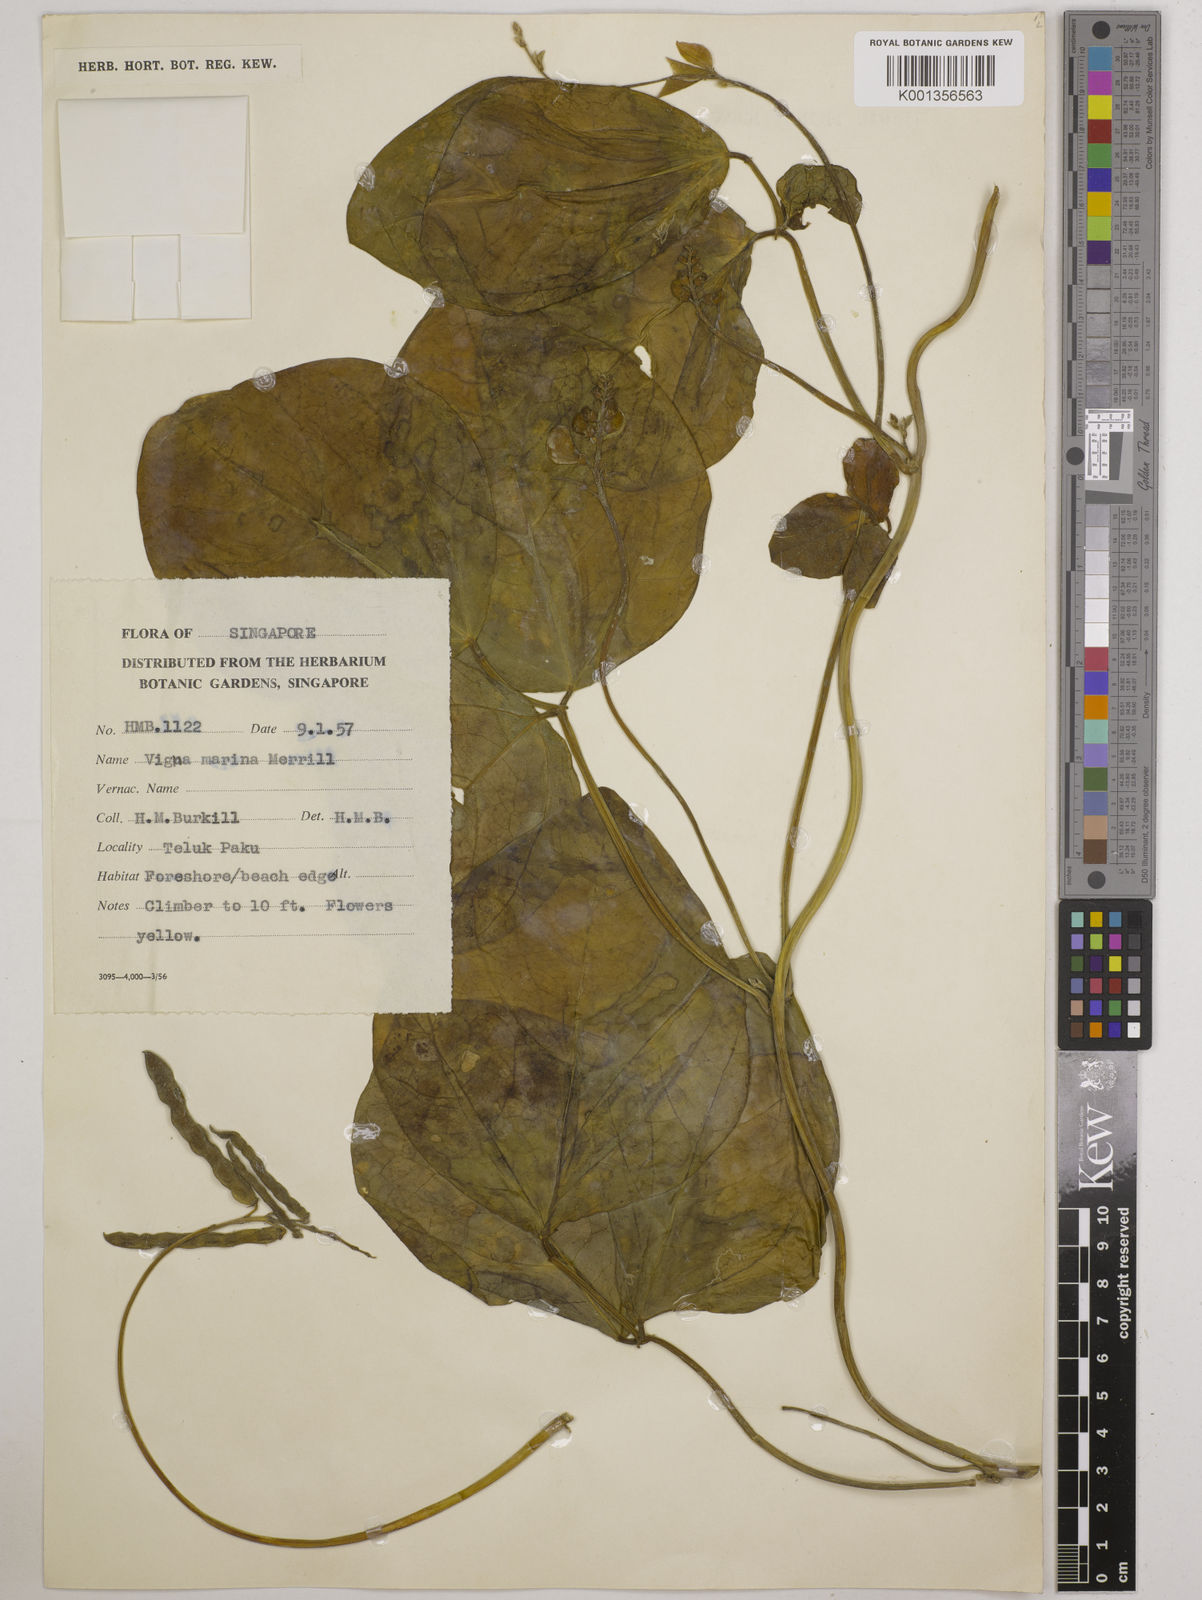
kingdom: Plantae
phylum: Tracheophyta
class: Magnoliopsida
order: Fabales
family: Fabaceae
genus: Vigna
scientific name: Vigna marina
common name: Dune-bean
